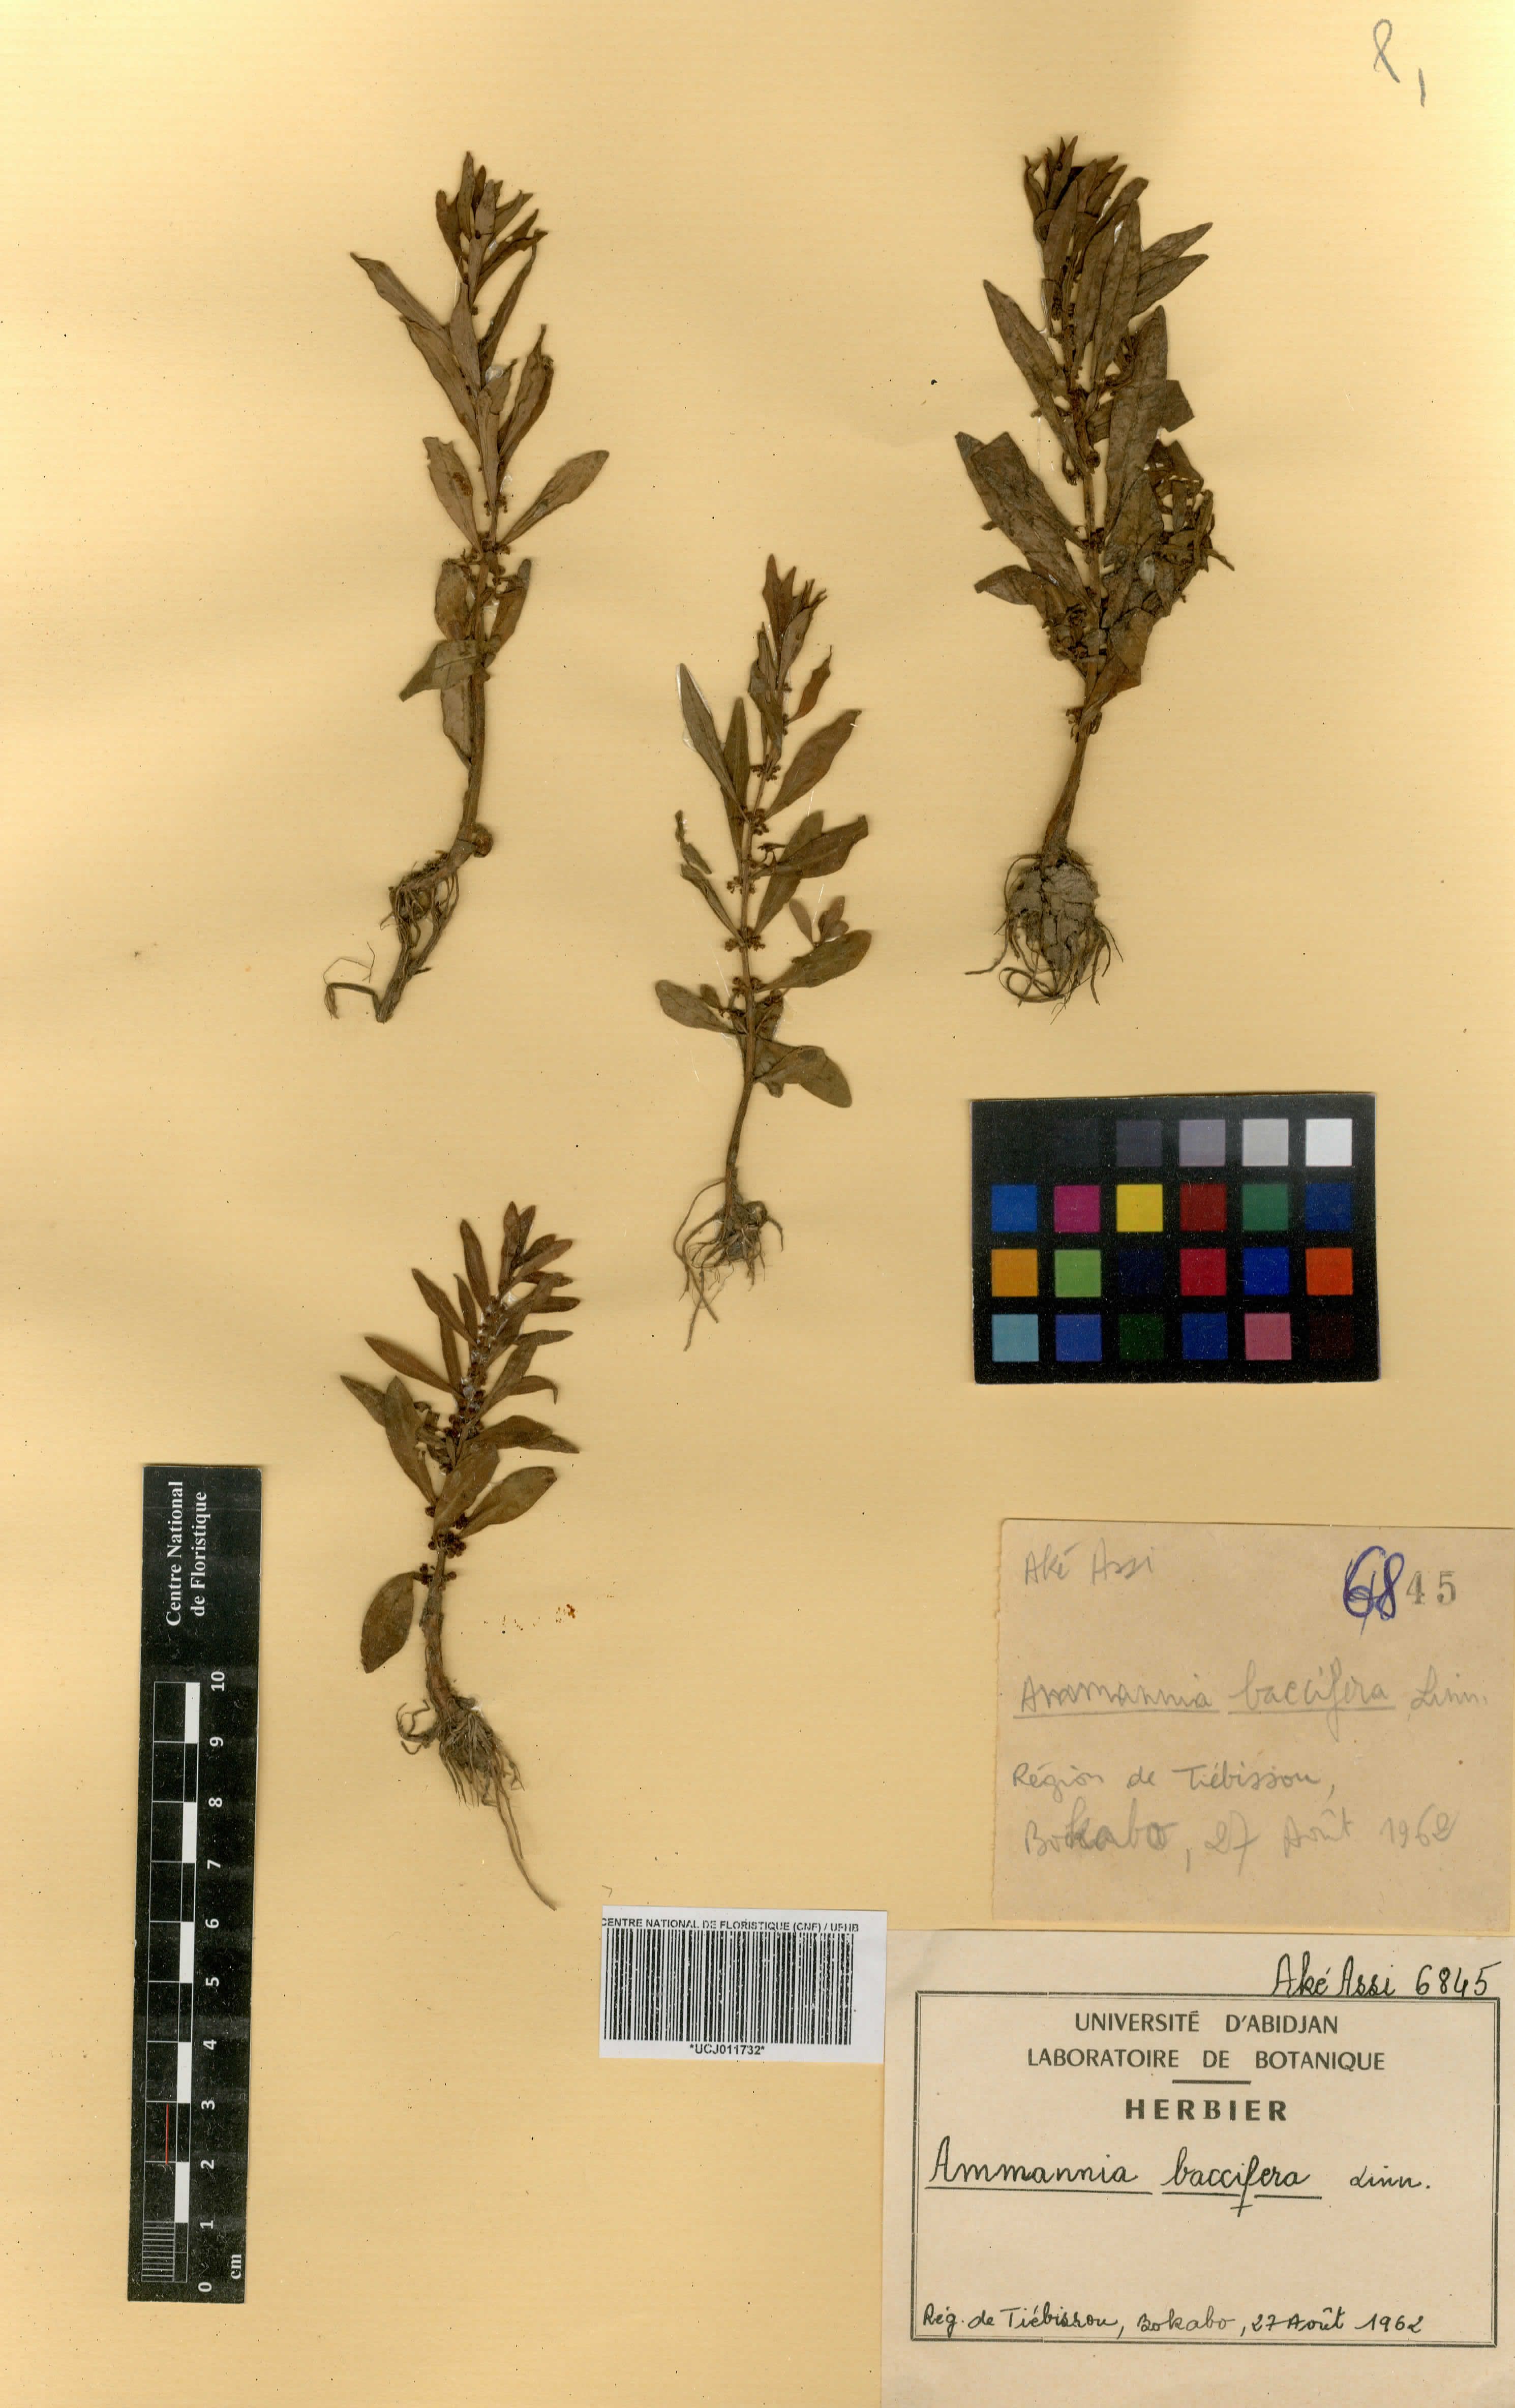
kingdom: Plantae
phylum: Tracheophyta
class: Magnoliopsida
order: Myrtales
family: Lythraceae
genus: Ammannia
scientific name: Ammannia baccifera
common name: Blistering ammania
